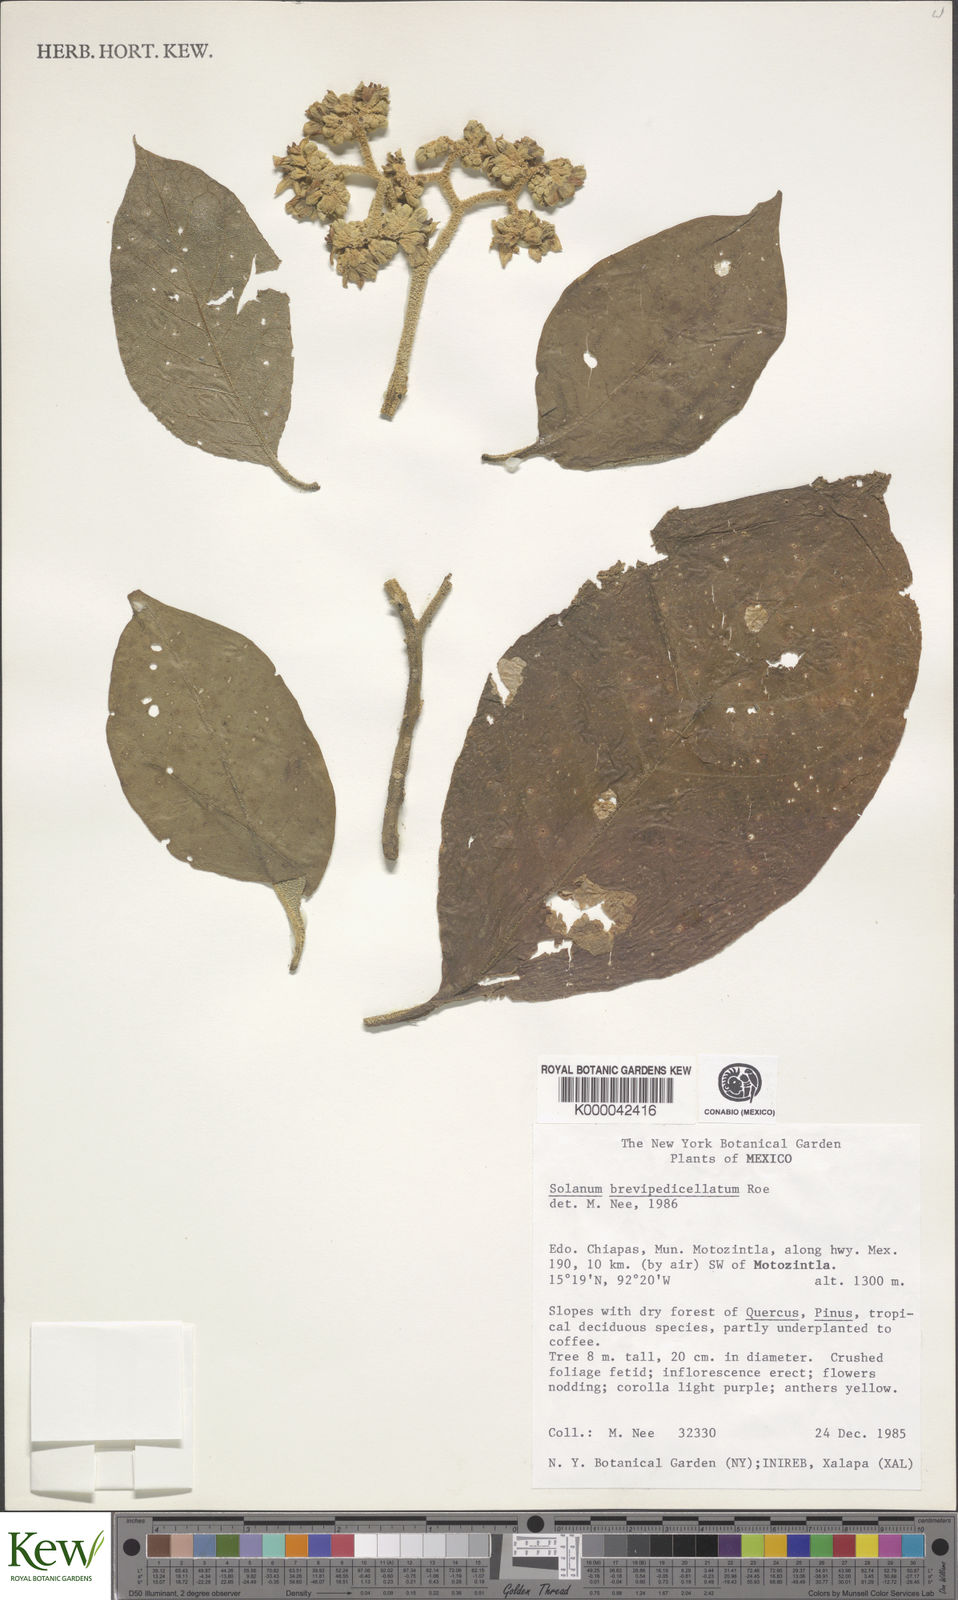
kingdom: Plantae
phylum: Tracheophyta
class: Magnoliopsida
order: Solanales
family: Solanaceae
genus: Solanum
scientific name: Solanum brevipedicellatum
